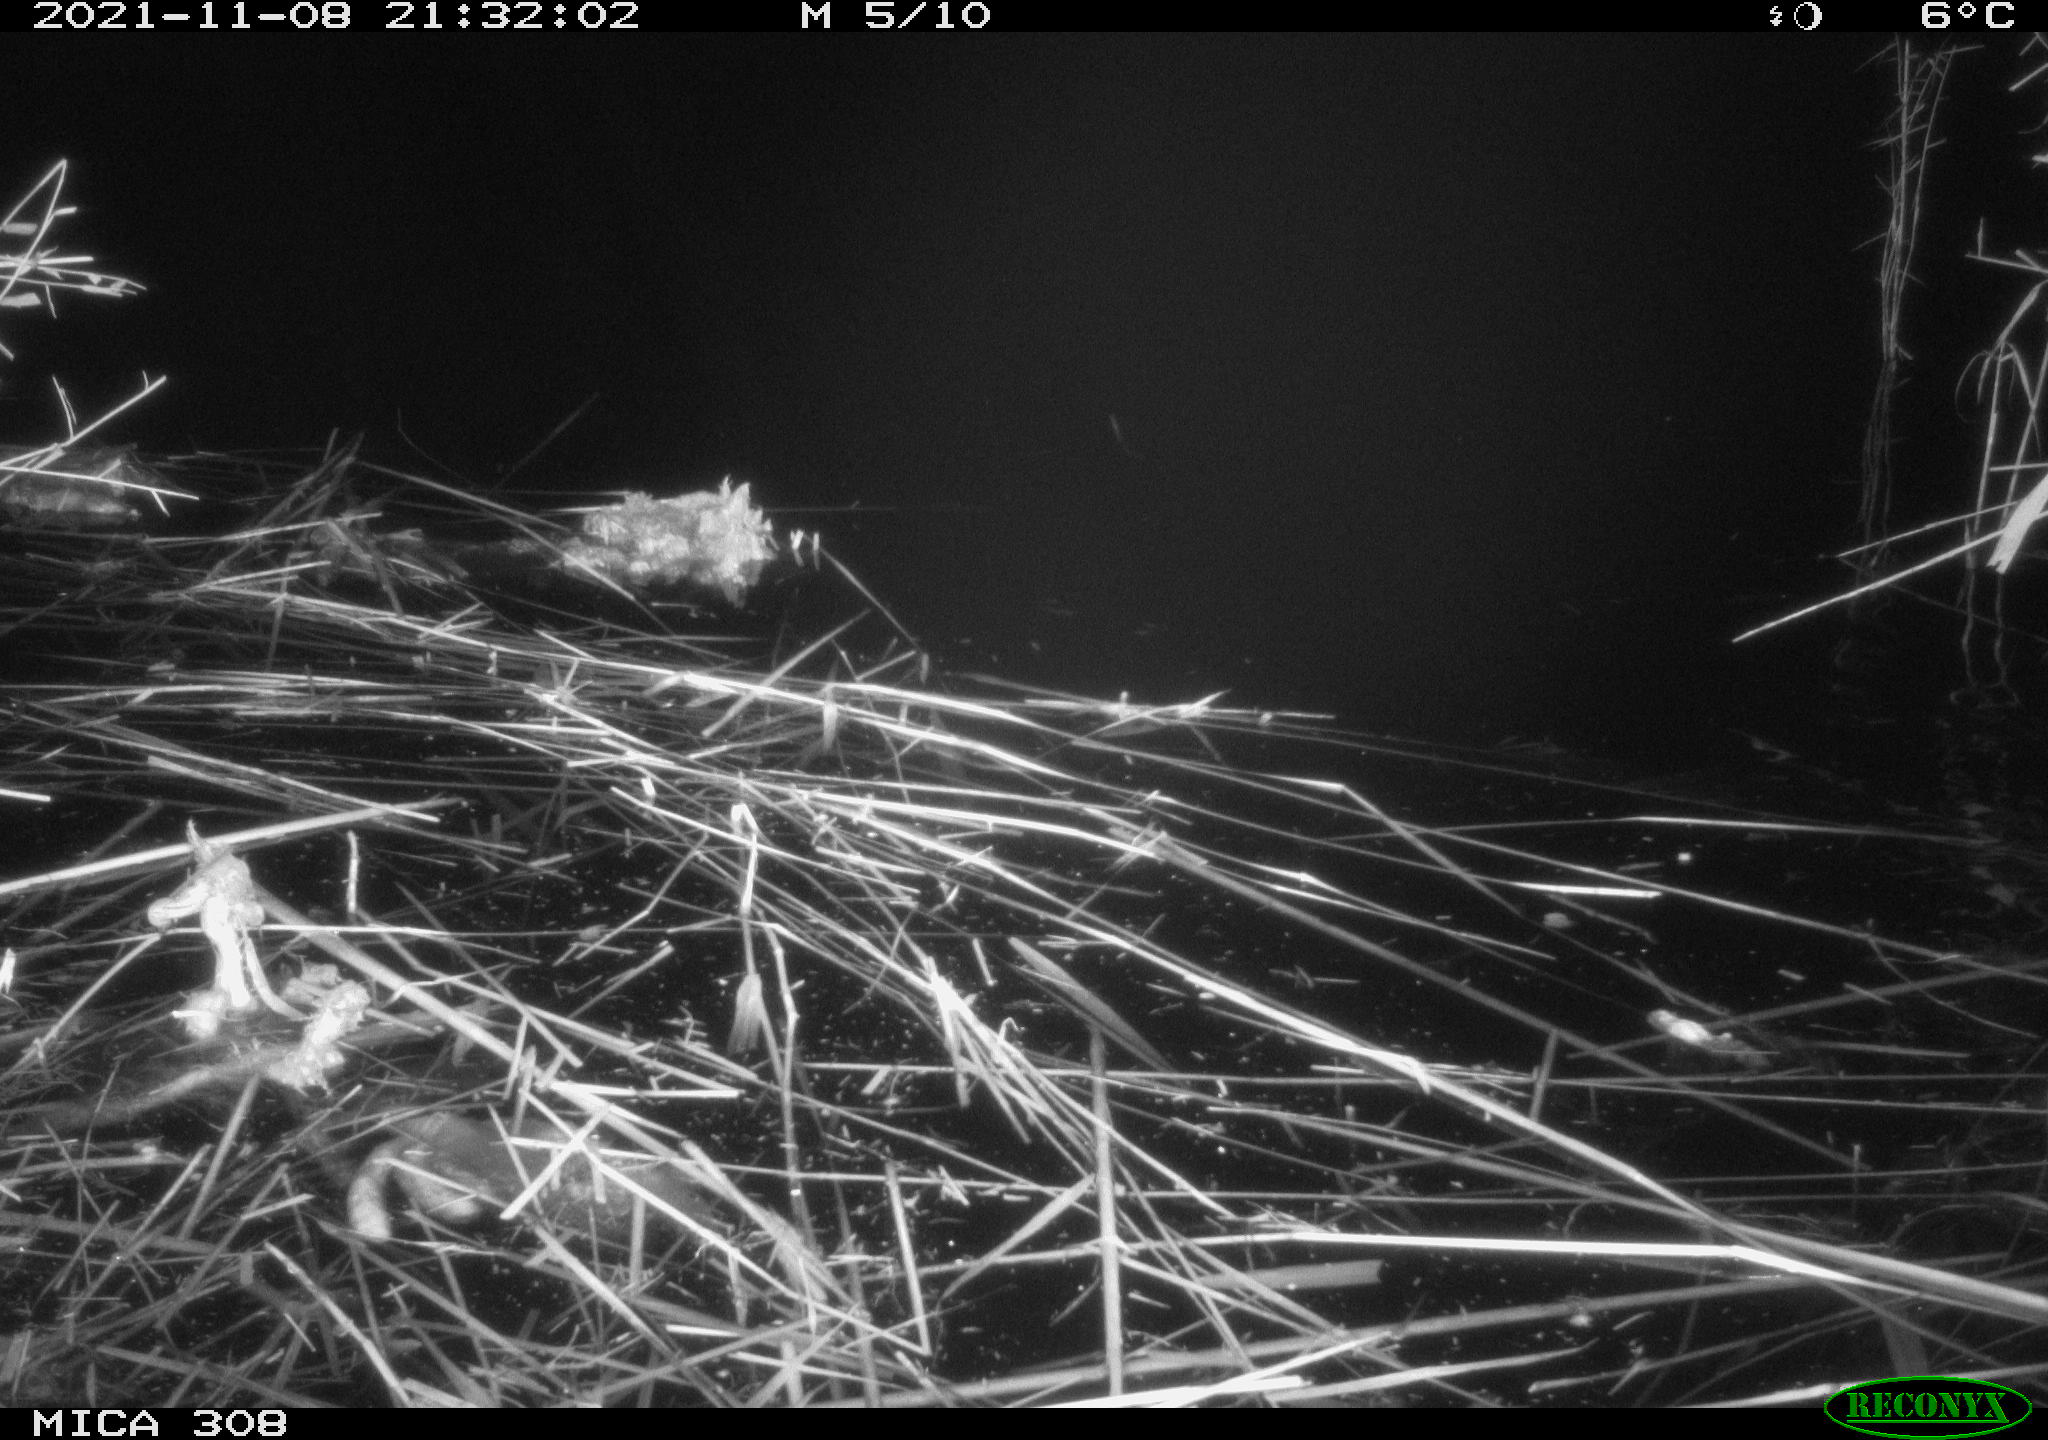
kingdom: Animalia
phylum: Chordata
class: Mammalia
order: Rodentia
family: Muridae
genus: Rattus
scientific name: Rattus norvegicus
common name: Brown rat
